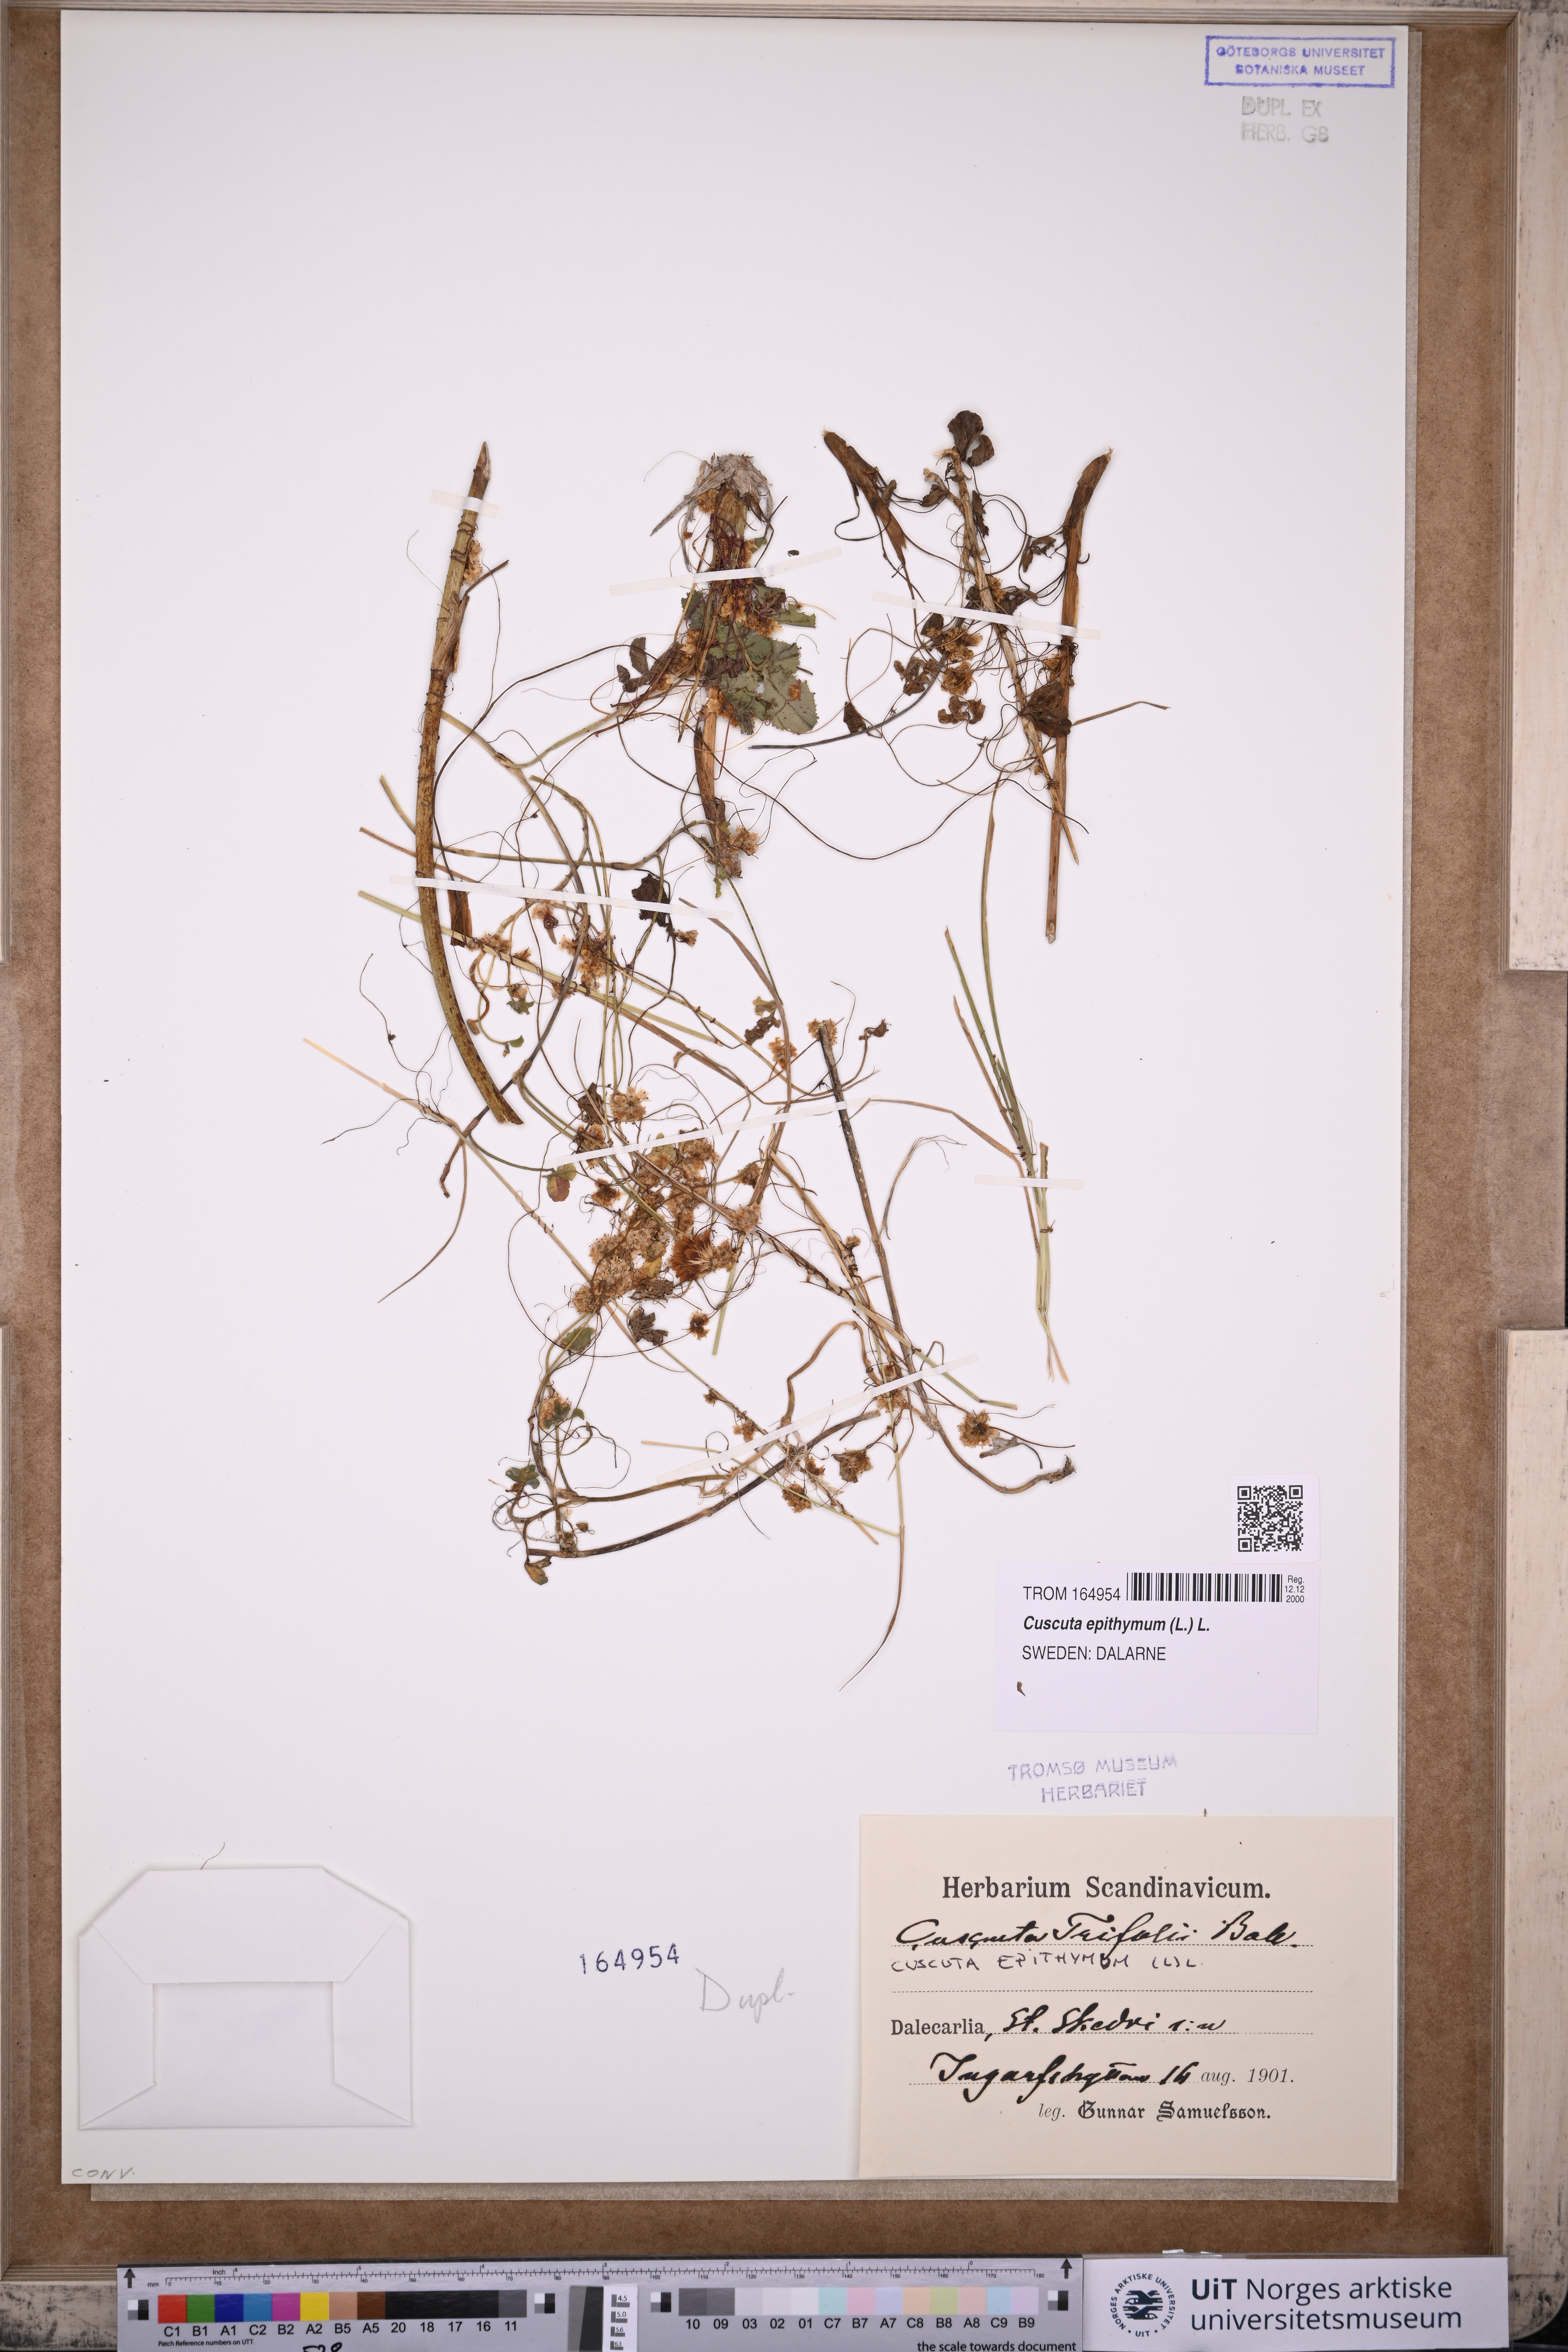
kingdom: Plantae
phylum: Tracheophyta
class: Magnoliopsida
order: Solanales
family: Convolvulaceae
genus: Cuscuta
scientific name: Cuscuta epithymum
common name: Clover dodder
